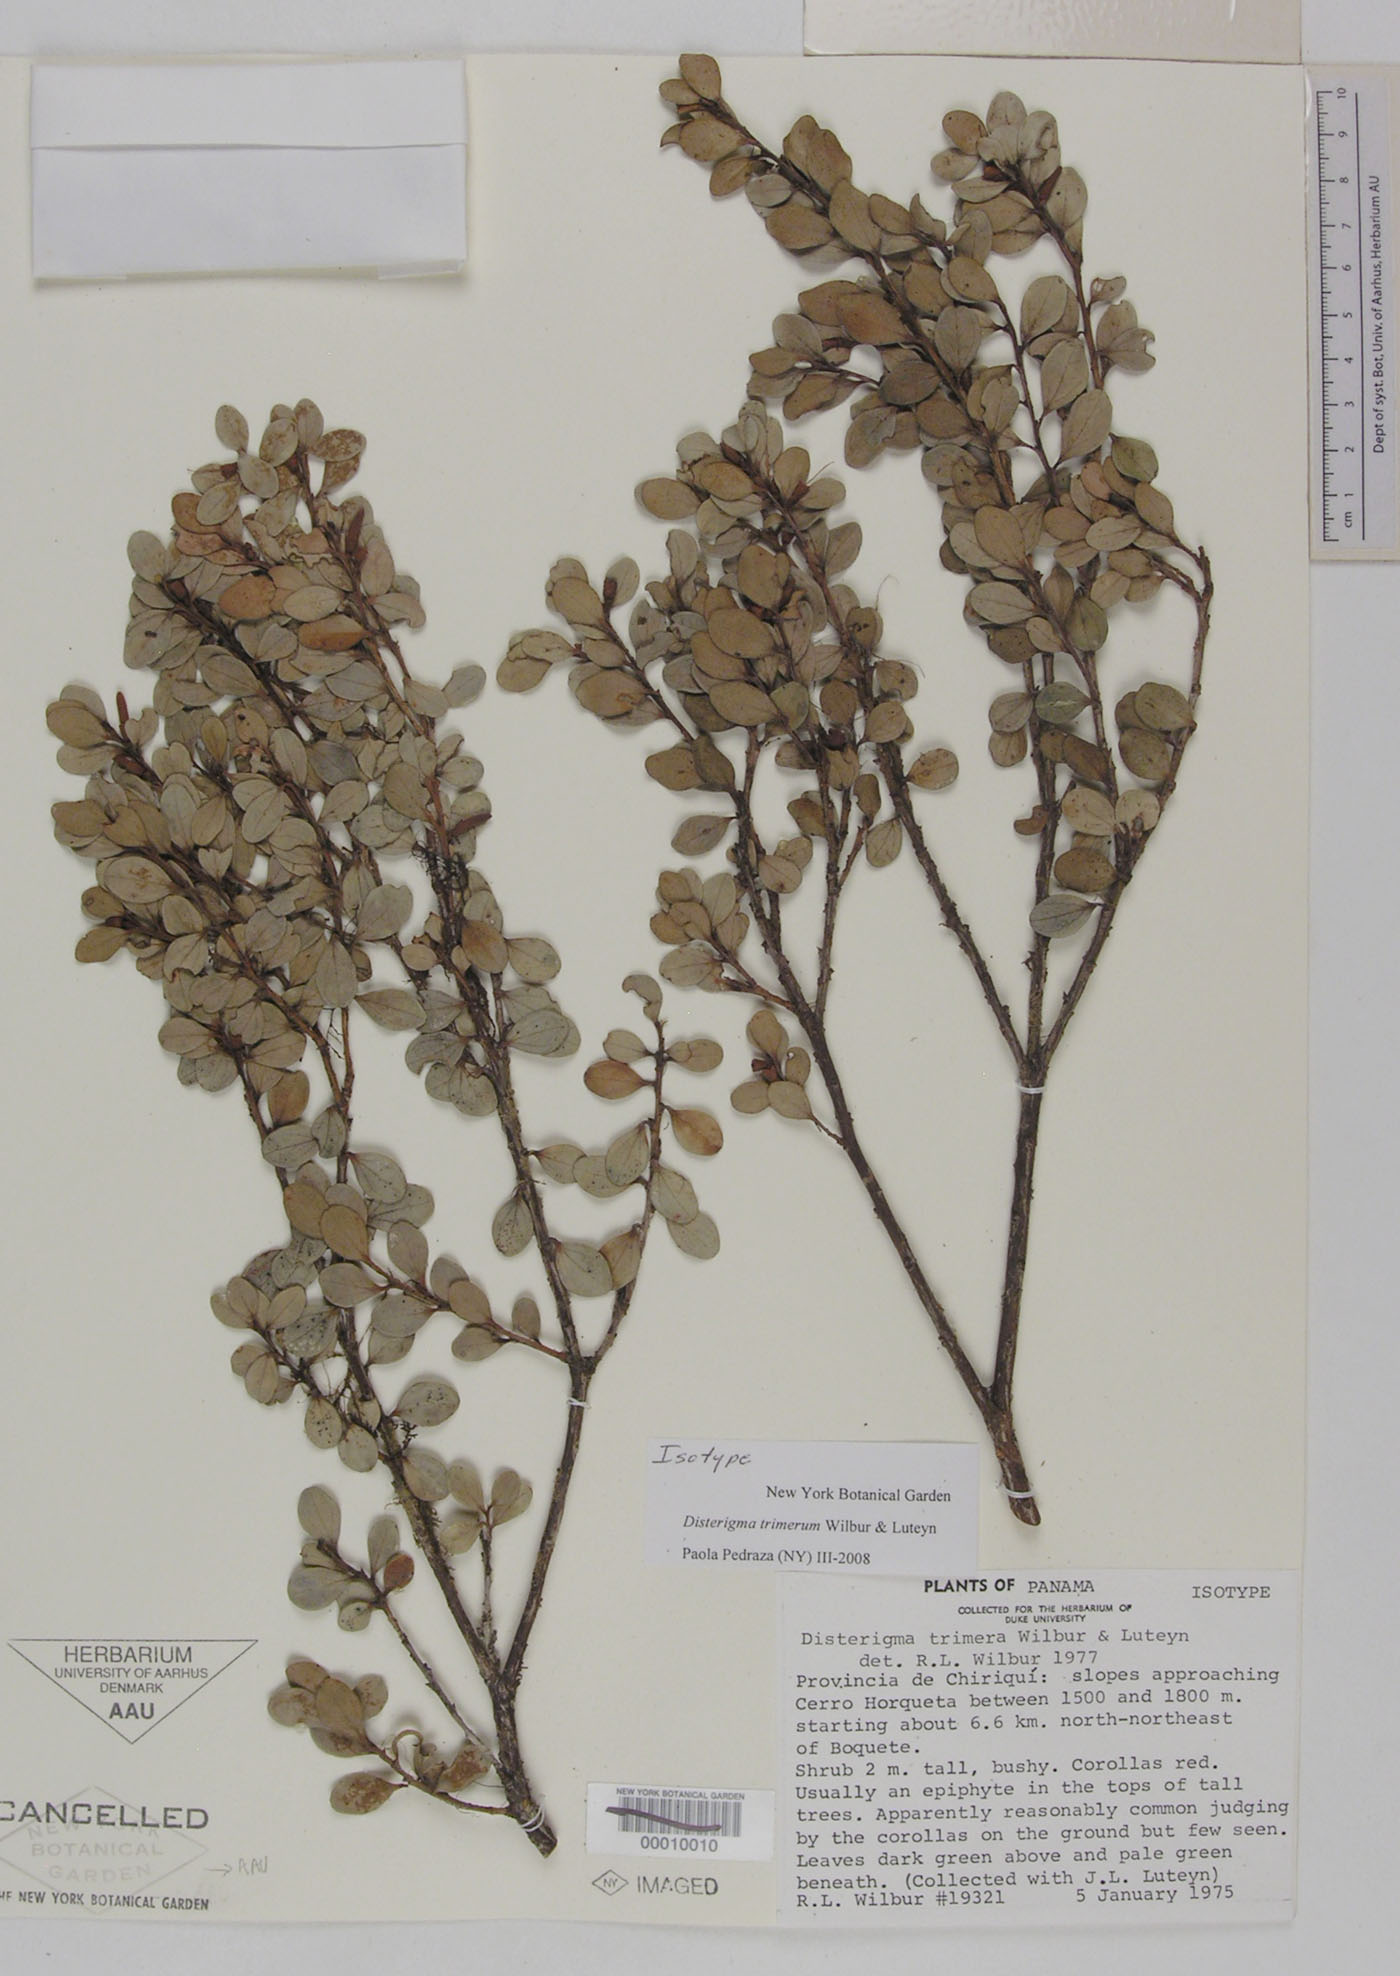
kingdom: Plantae
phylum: Tracheophyta
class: Magnoliopsida
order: Ericales
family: Ericaceae
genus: Disterigma
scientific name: Disterigma trimerum
